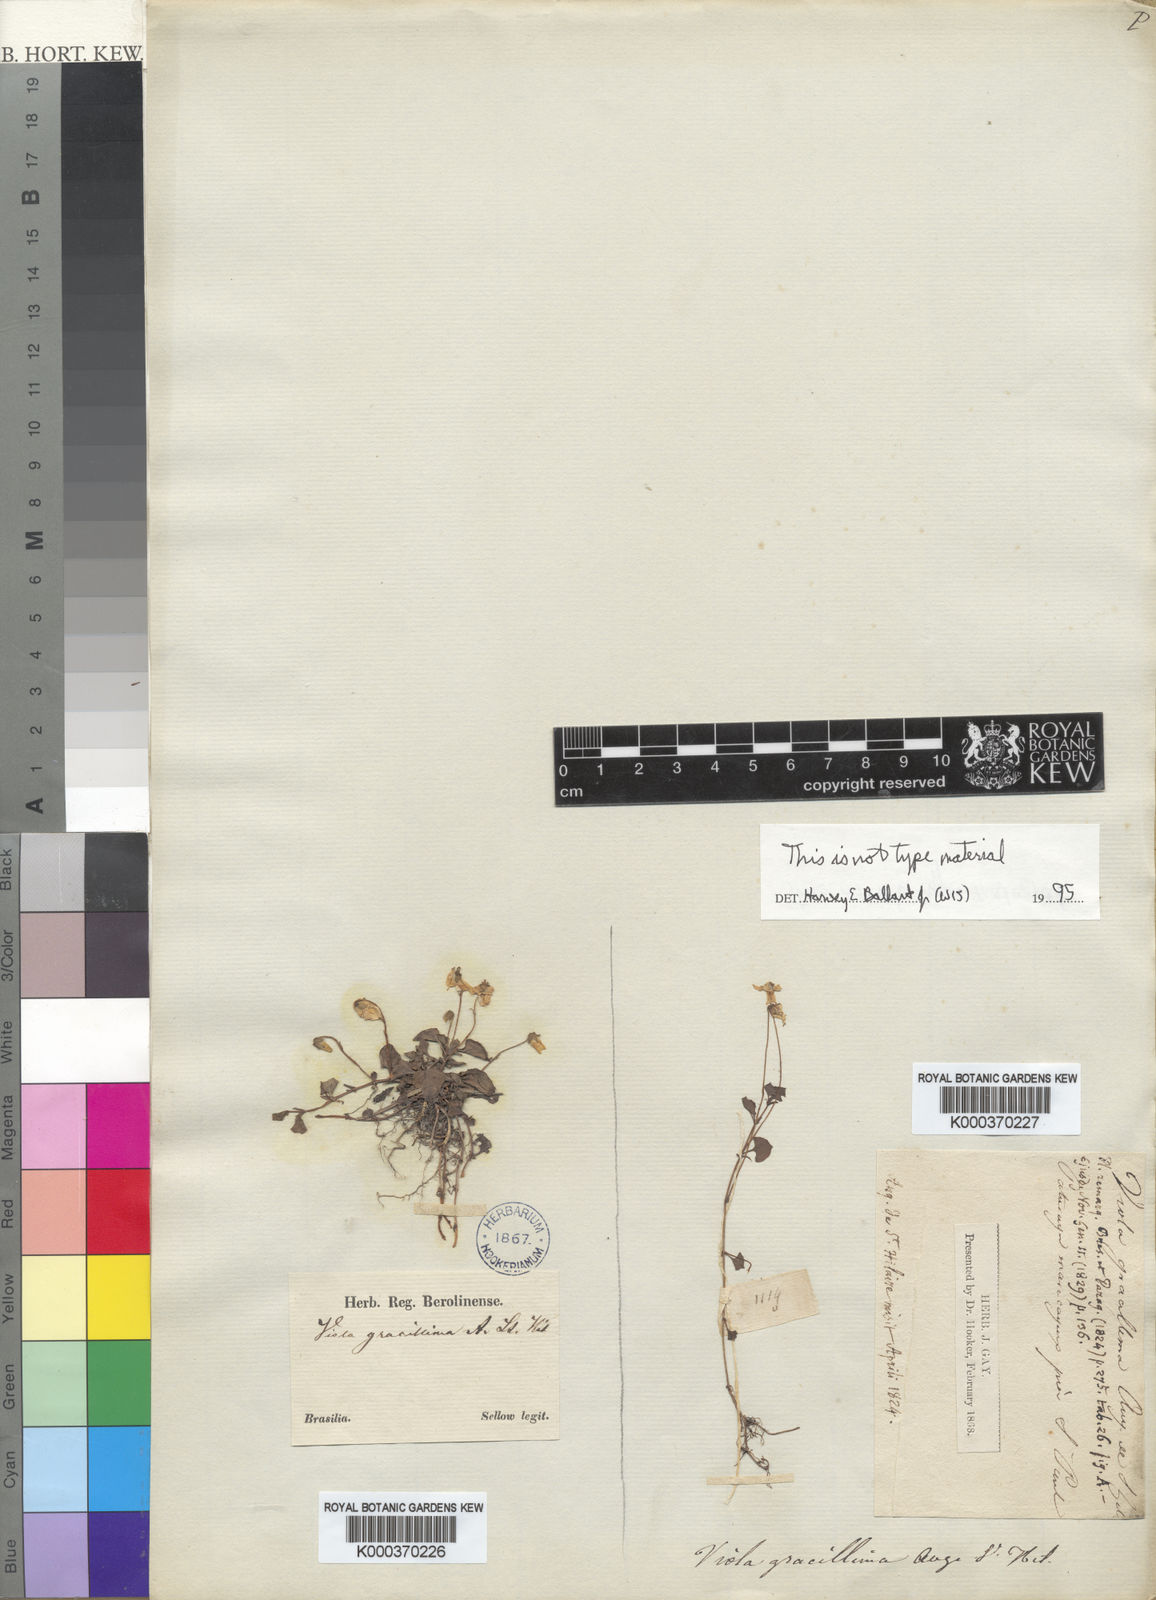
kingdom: Plantae
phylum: Tracheophyta
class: Magnoliopsida
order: Malpighiales
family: Violaceae
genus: Viola
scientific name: Viola gracillima
